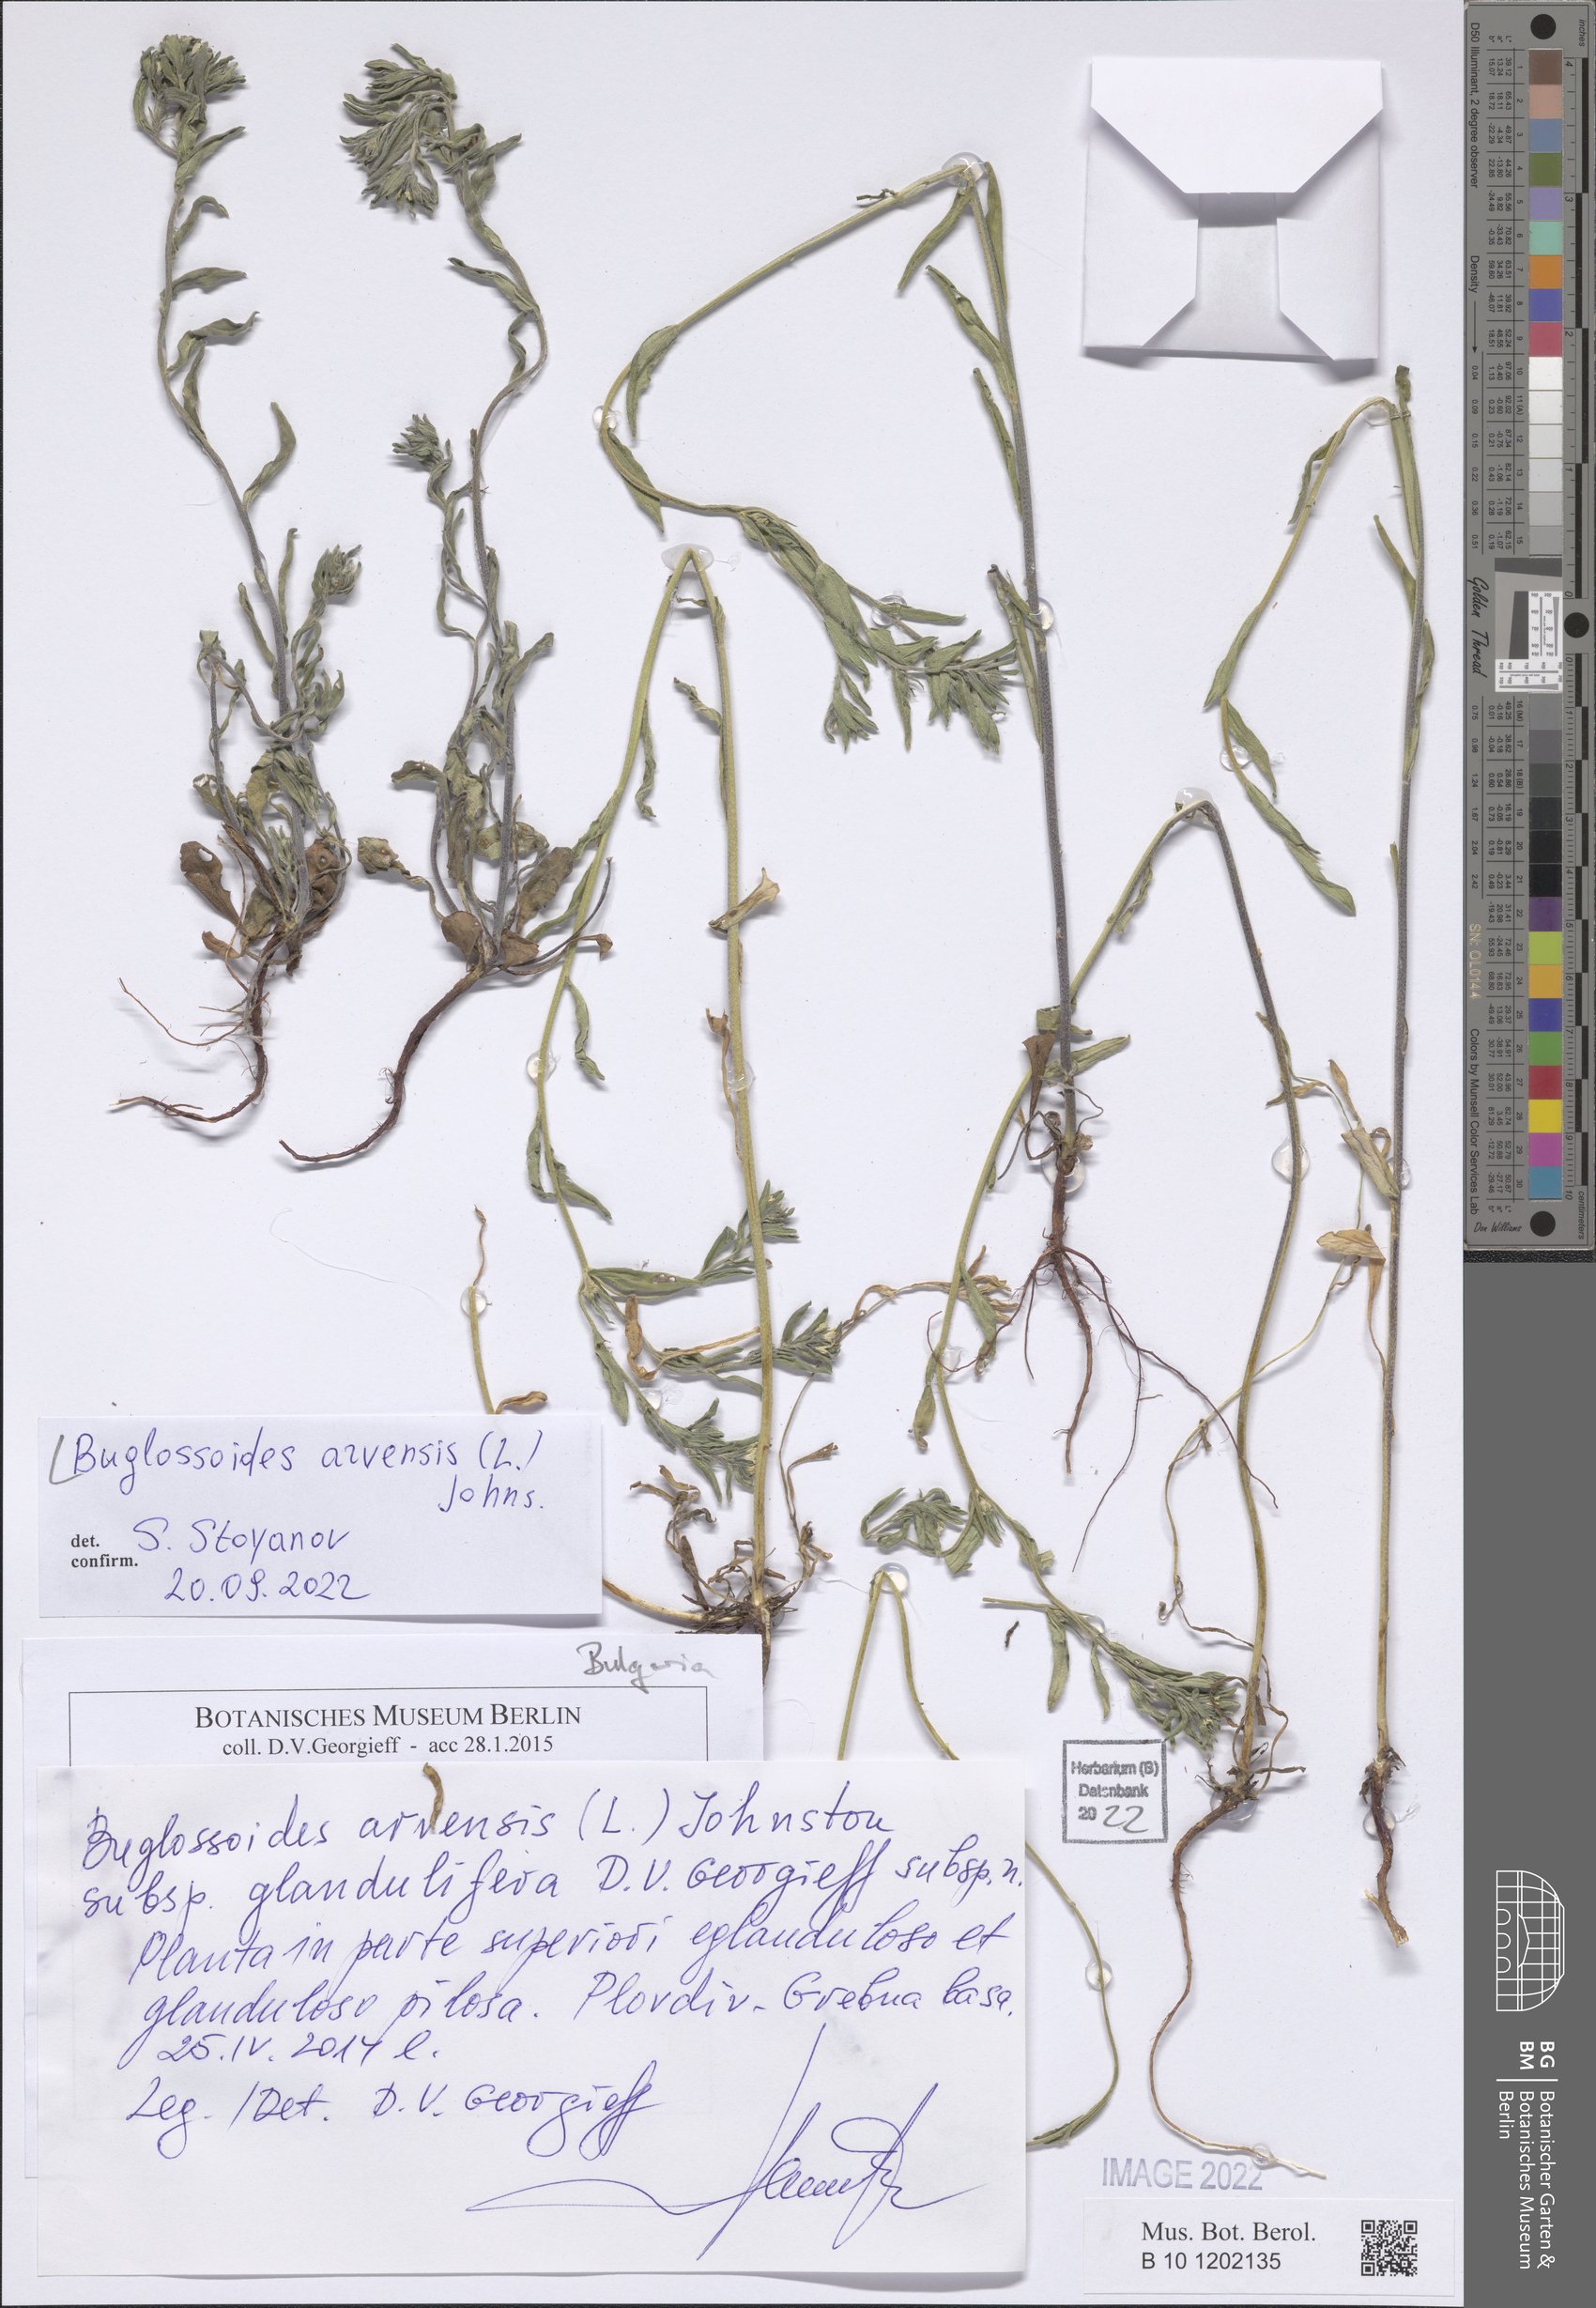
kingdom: Plantae
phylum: Tracheophyta
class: Magnoliopsida
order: Boraginales
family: Boraginaceae
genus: Buglossoides
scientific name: Buglossoides arvensis
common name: Corn gromwell
